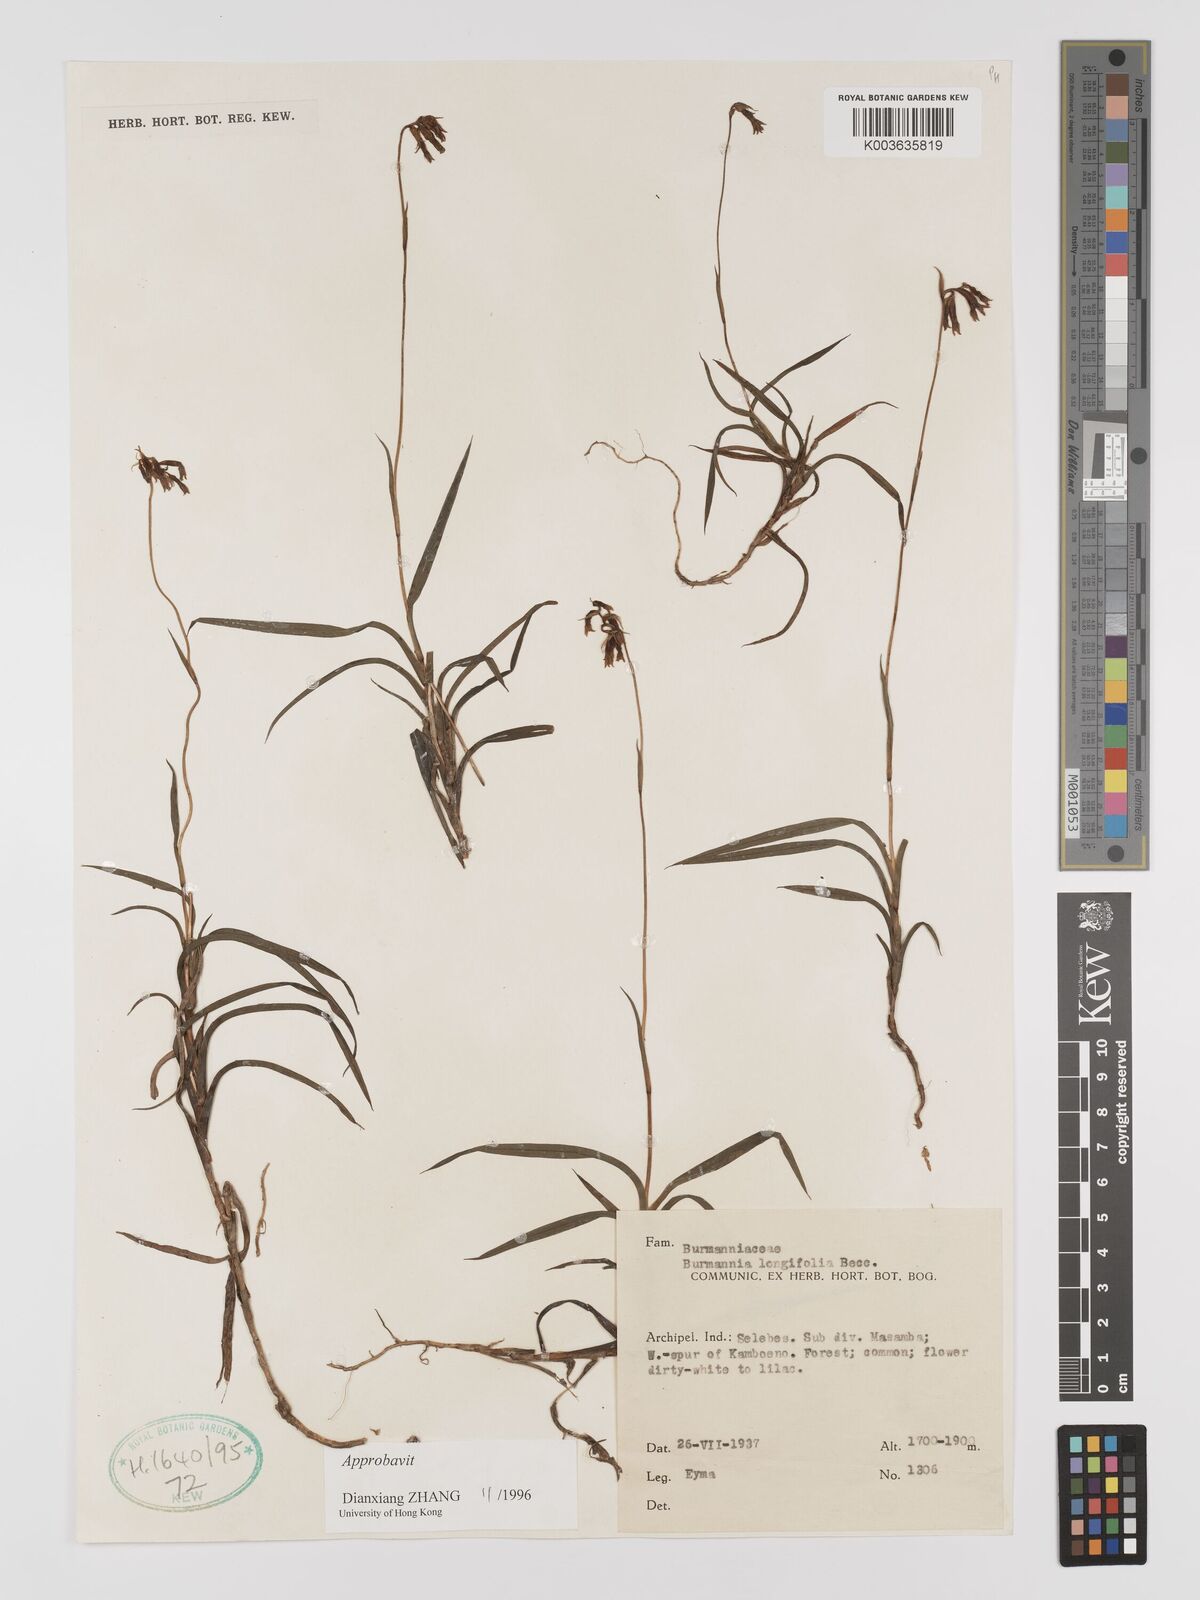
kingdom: Plantae
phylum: Tracheophyta
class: Liliopsida
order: Dioscoreales
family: Burmanniaceae
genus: Burmannia
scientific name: Burmannia longifolia
